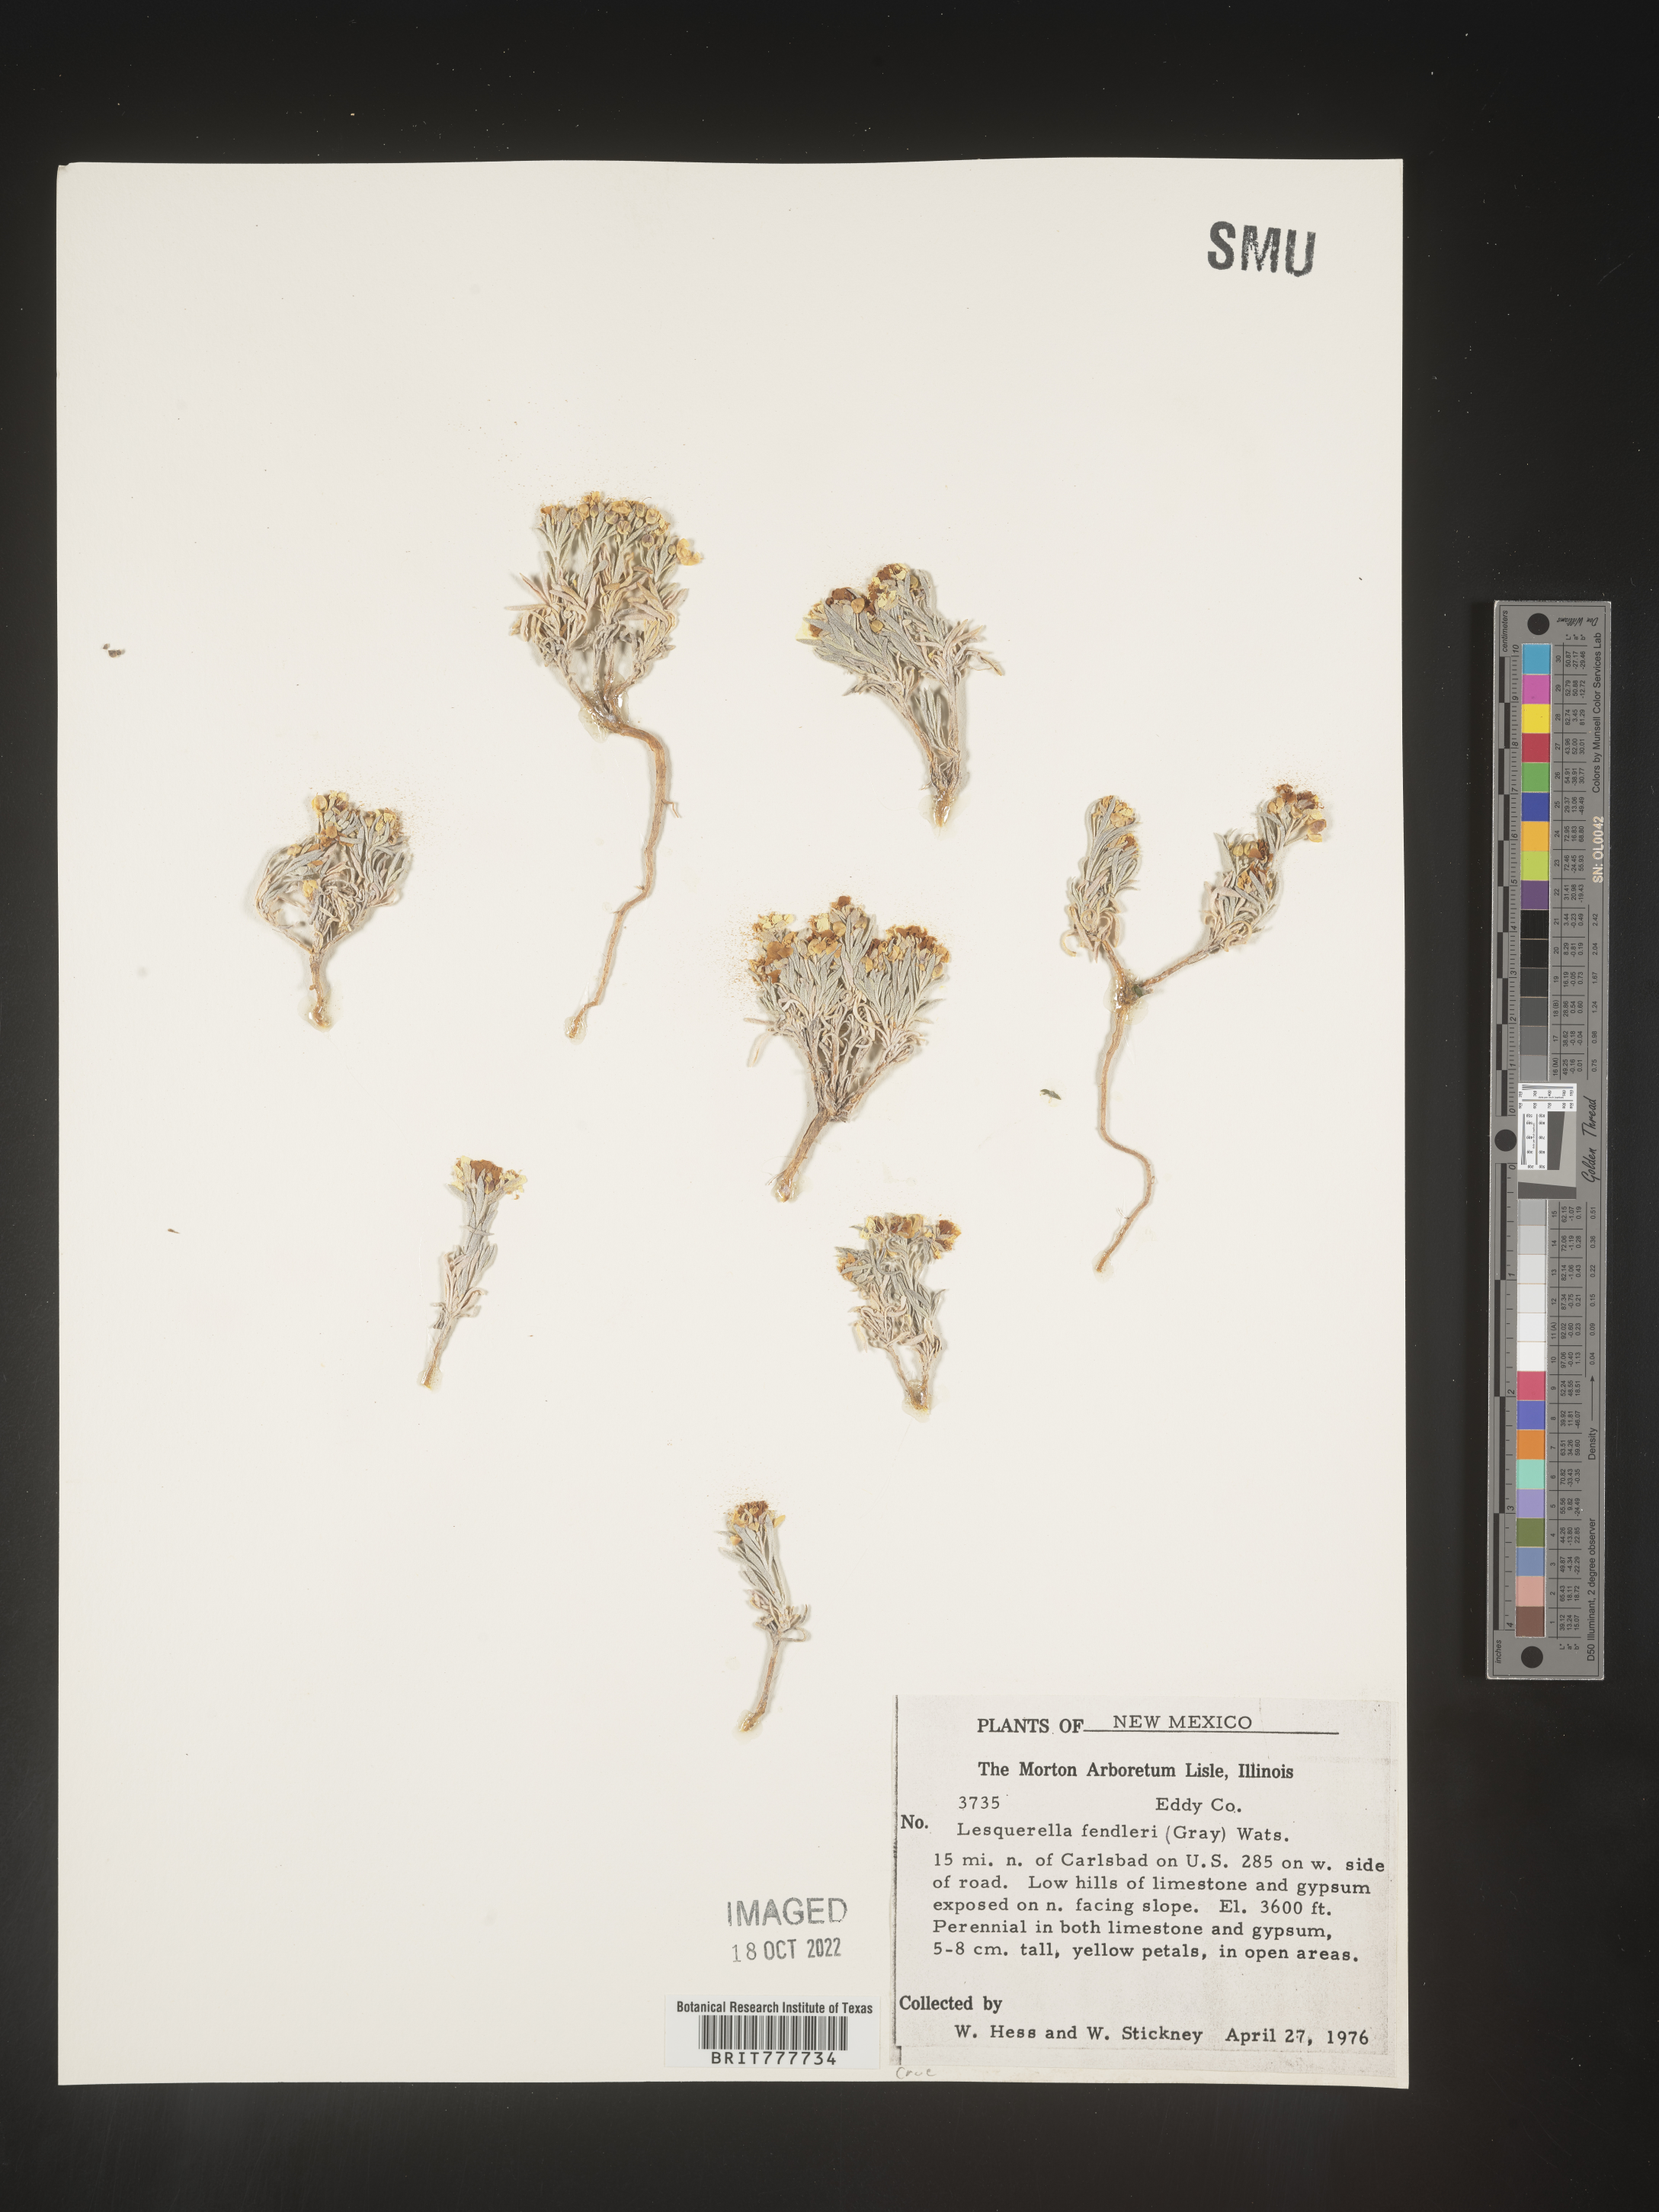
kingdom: Plantae
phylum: Tracheophyta
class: Magnoliopsida
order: Brassicales
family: Brassicaceae
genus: Physaria
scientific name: Physaria fendleri
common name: Fendler's bladderpod
